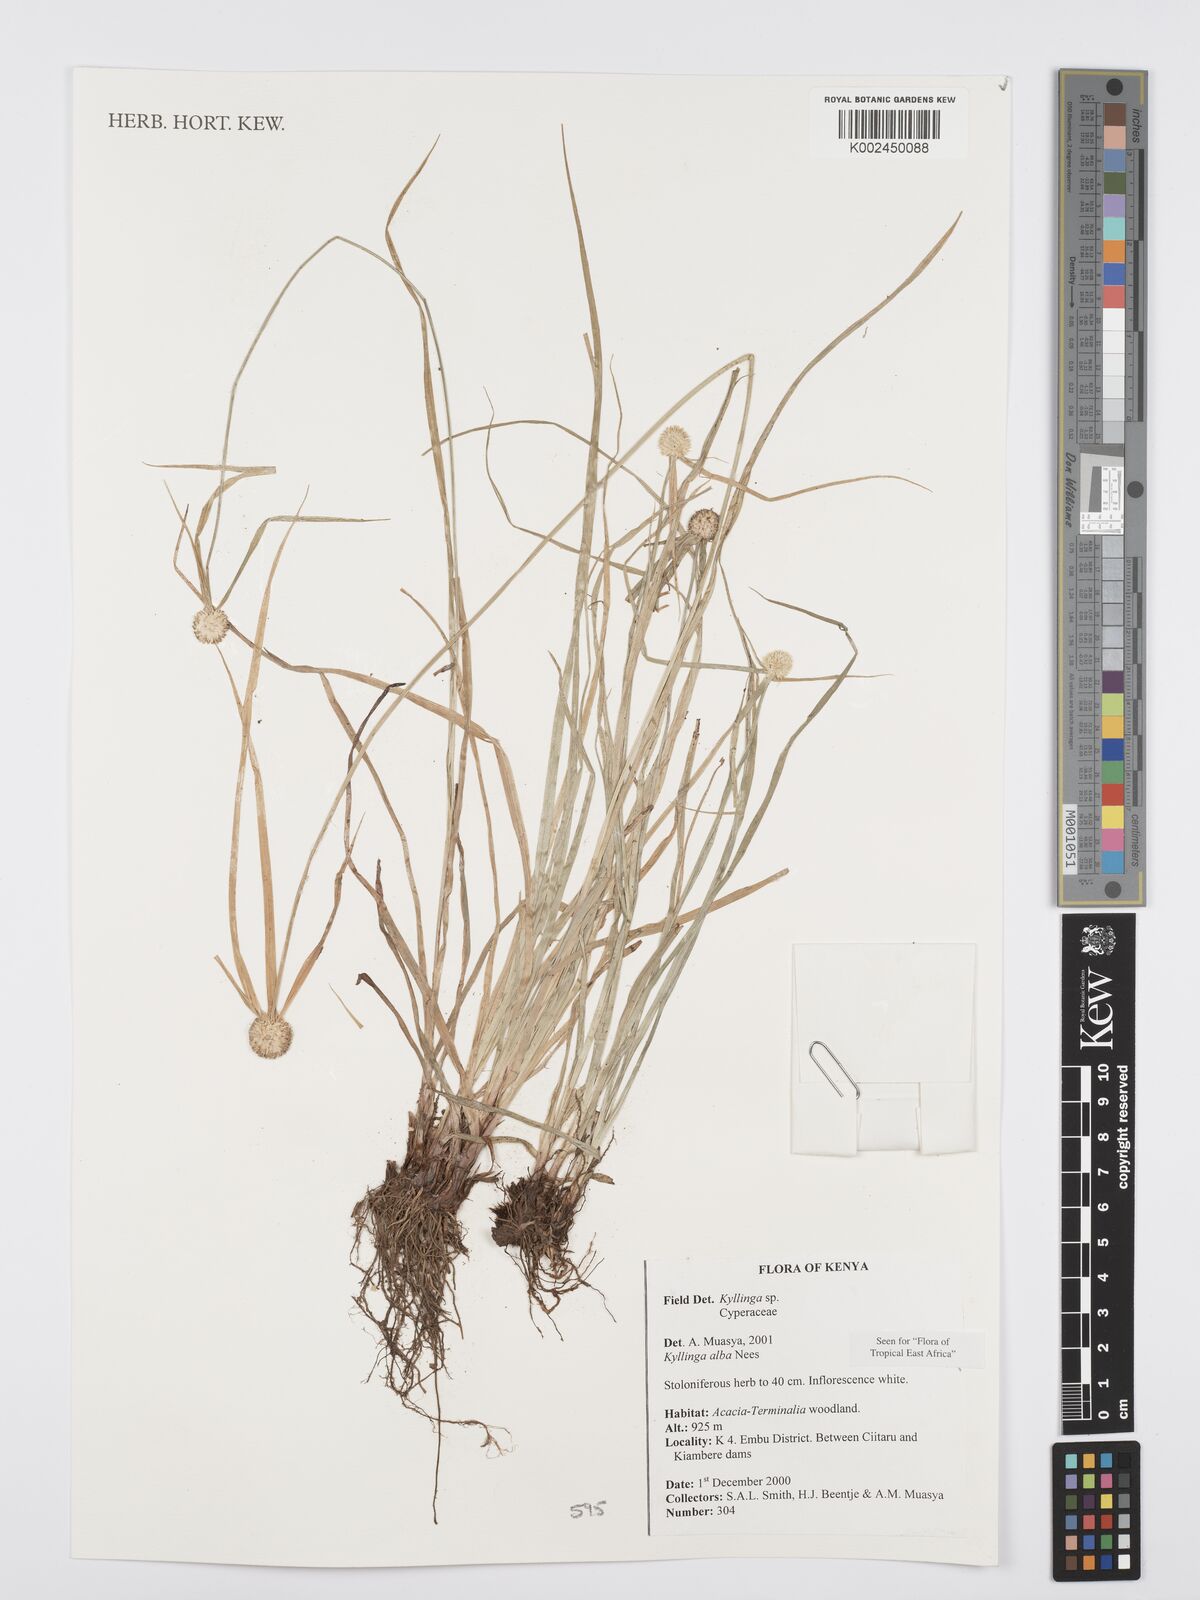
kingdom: Plantae
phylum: Tracheophyta
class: Liliopsida
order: Poales
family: Cyperaceae
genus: Cyperus
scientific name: Cyperus
